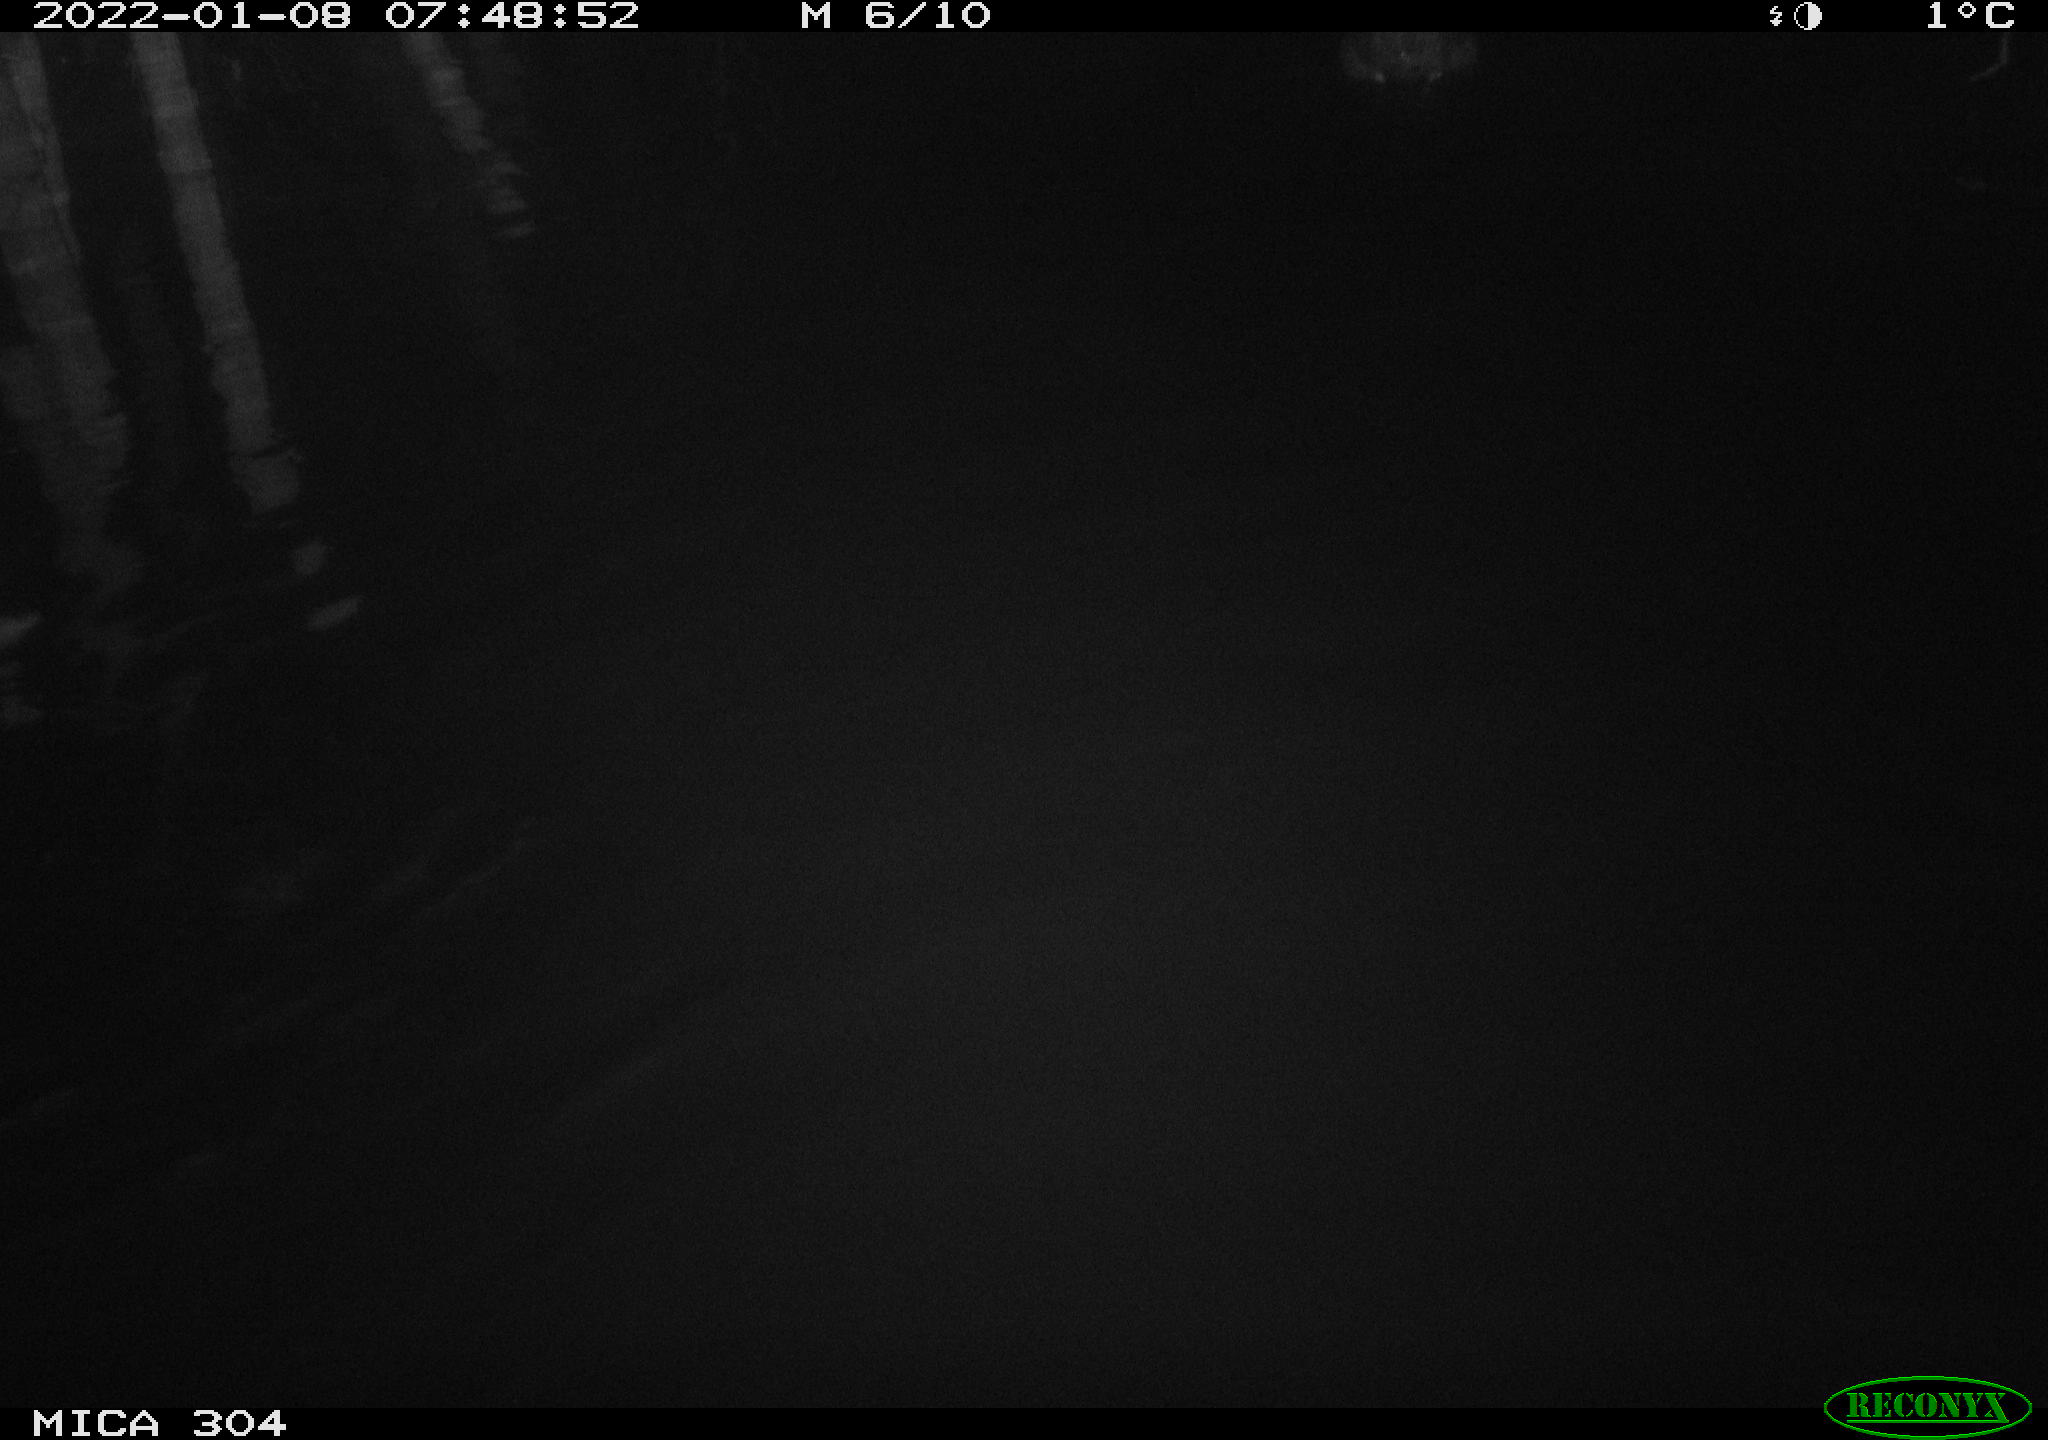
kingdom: Animalia
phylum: Chordata
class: Aves
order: Gruiformes
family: Rallidae
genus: Fulica
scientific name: Fulica atra
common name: Eurasian coot
